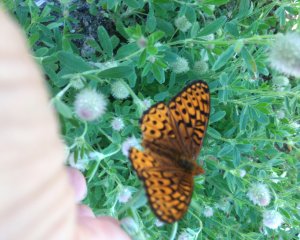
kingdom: Animalia
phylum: Arthropoda
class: Insecta
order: Lepidoptera
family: Nymphalidae
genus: Speyeria
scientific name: Speyeria atlantis
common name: Atlantis Fritillary
